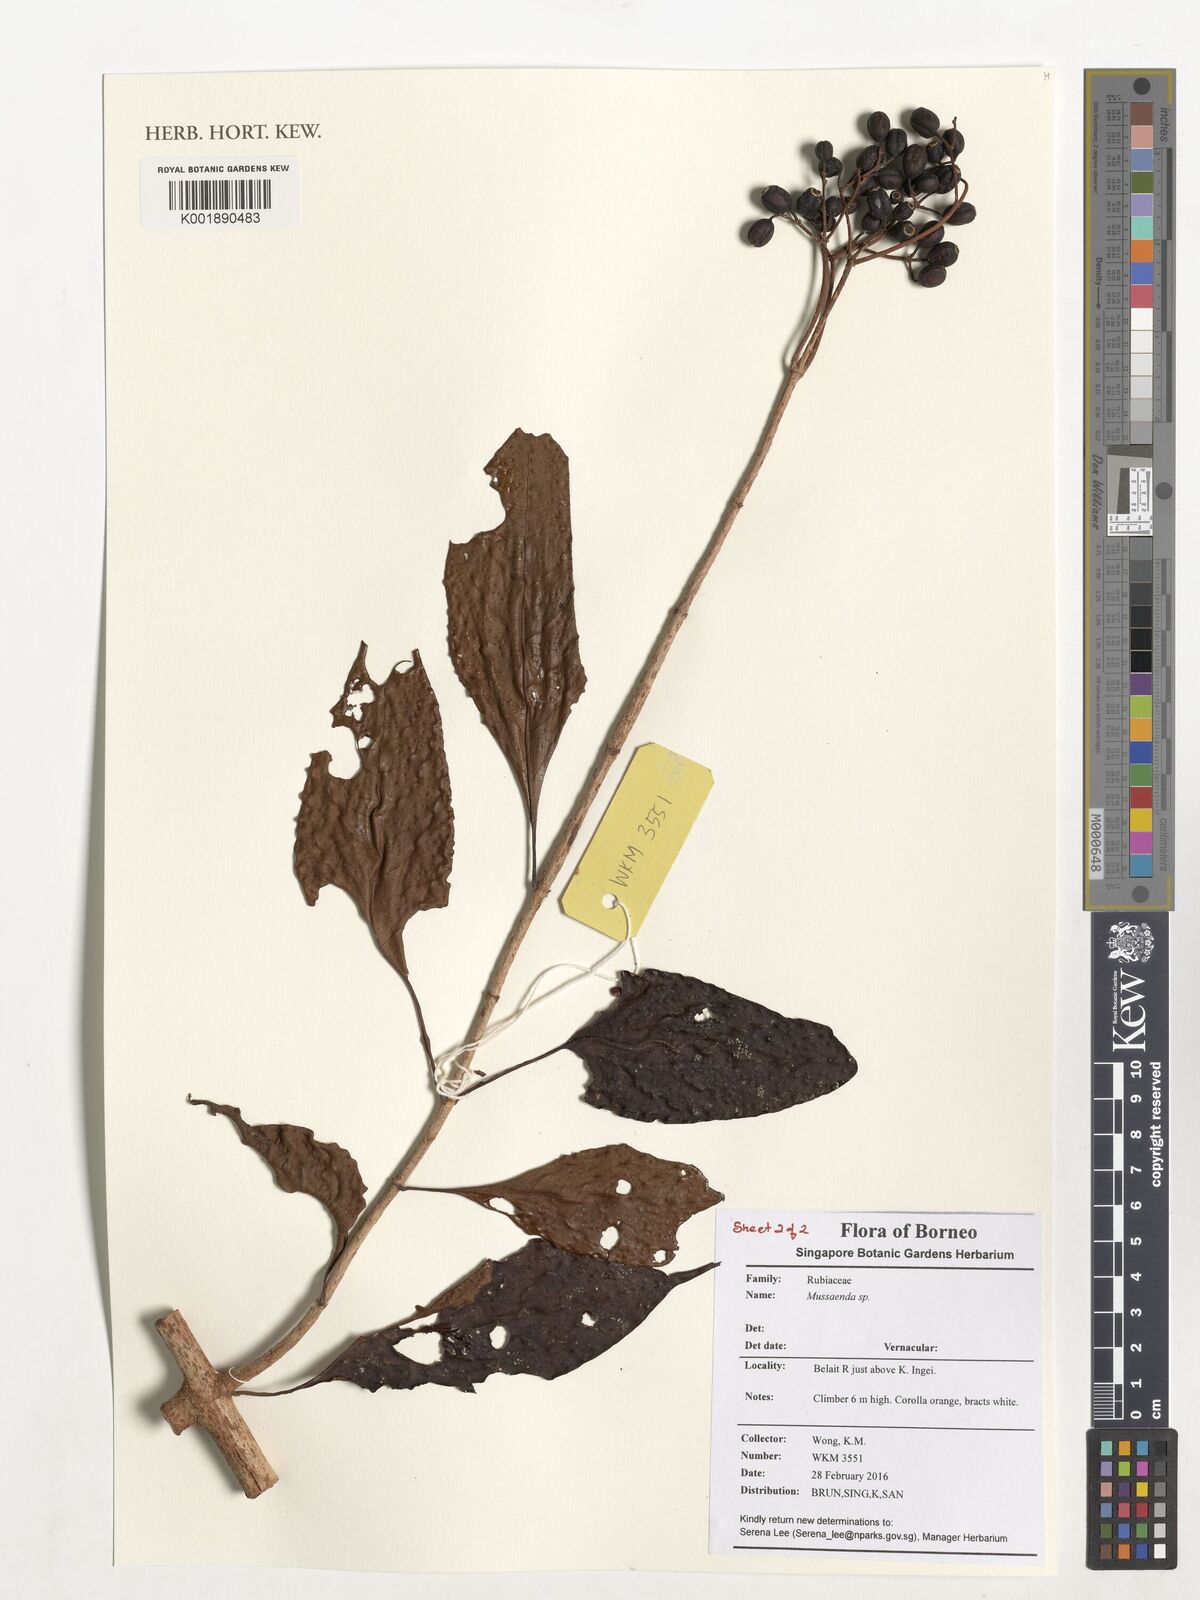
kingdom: Plantae
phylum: Tracheophyta
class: Magnoliopsida
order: Gentianales
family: Rubiaceae
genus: Mussaenda
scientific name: Mussaenda
